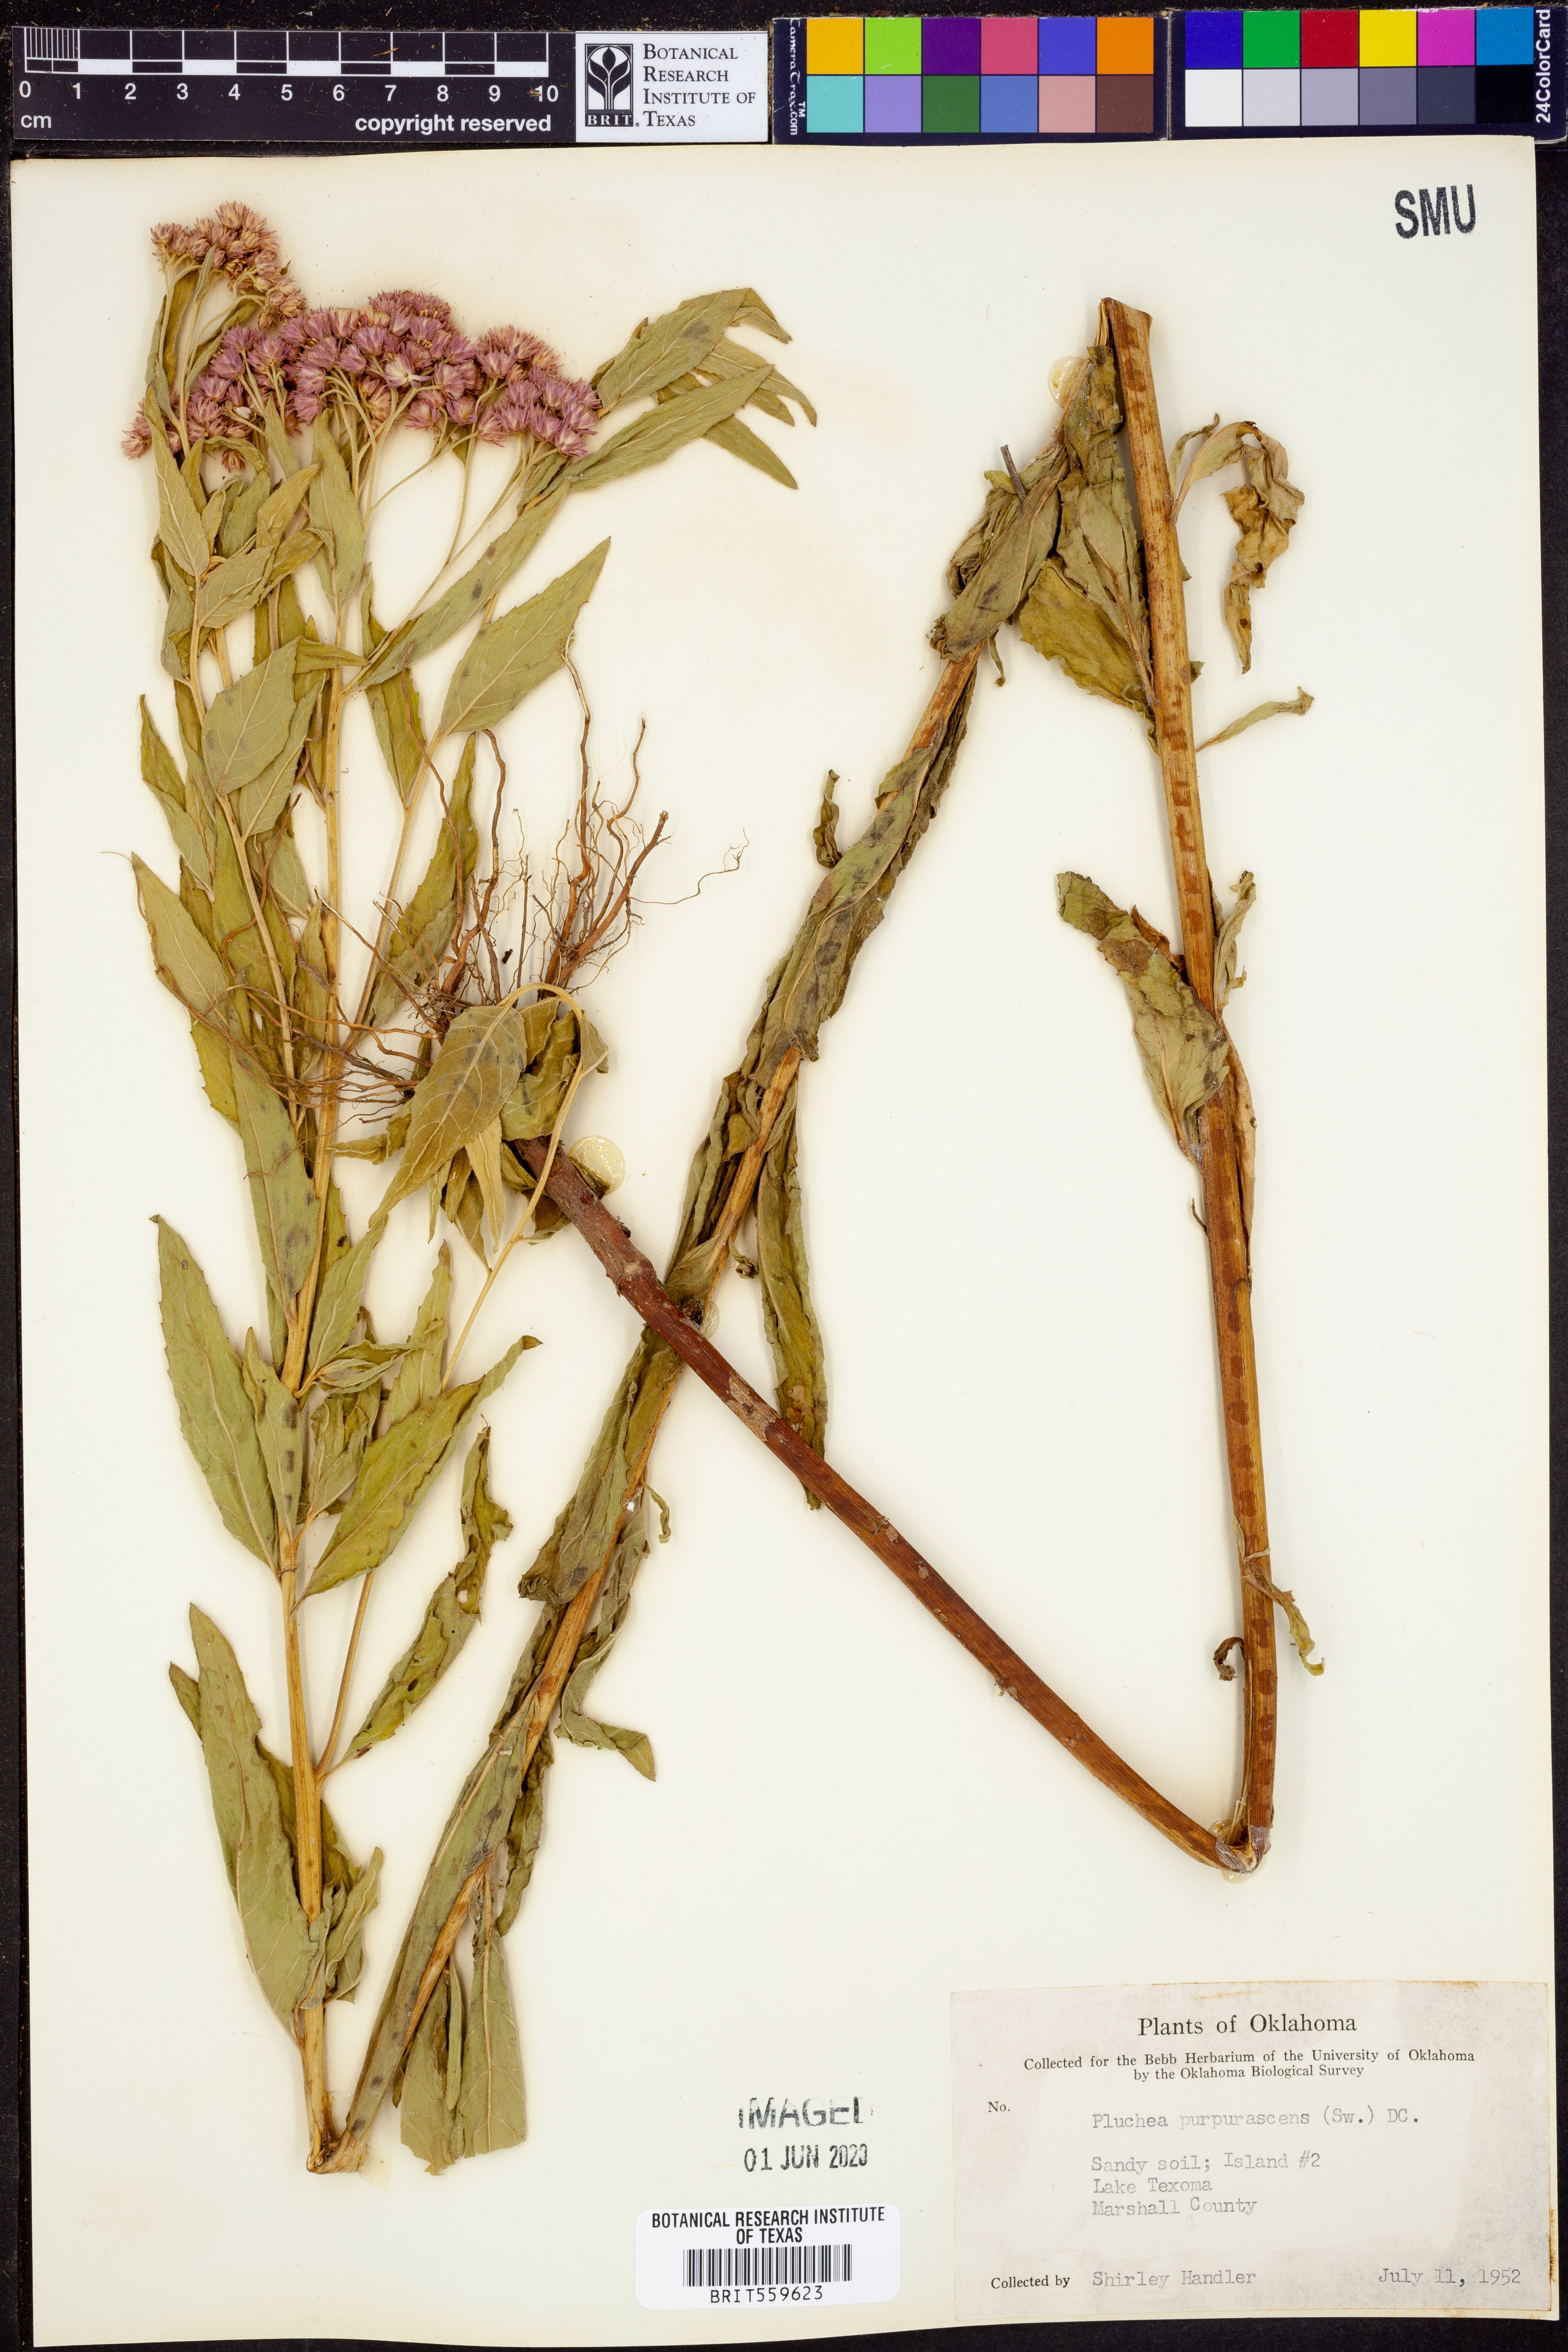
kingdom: Plantae
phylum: Tracheophyta
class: Magnoliopsida
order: Asterales
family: Asteraceae
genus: Pluchea
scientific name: Pluchea odorata
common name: Saltmarsh fleabane
